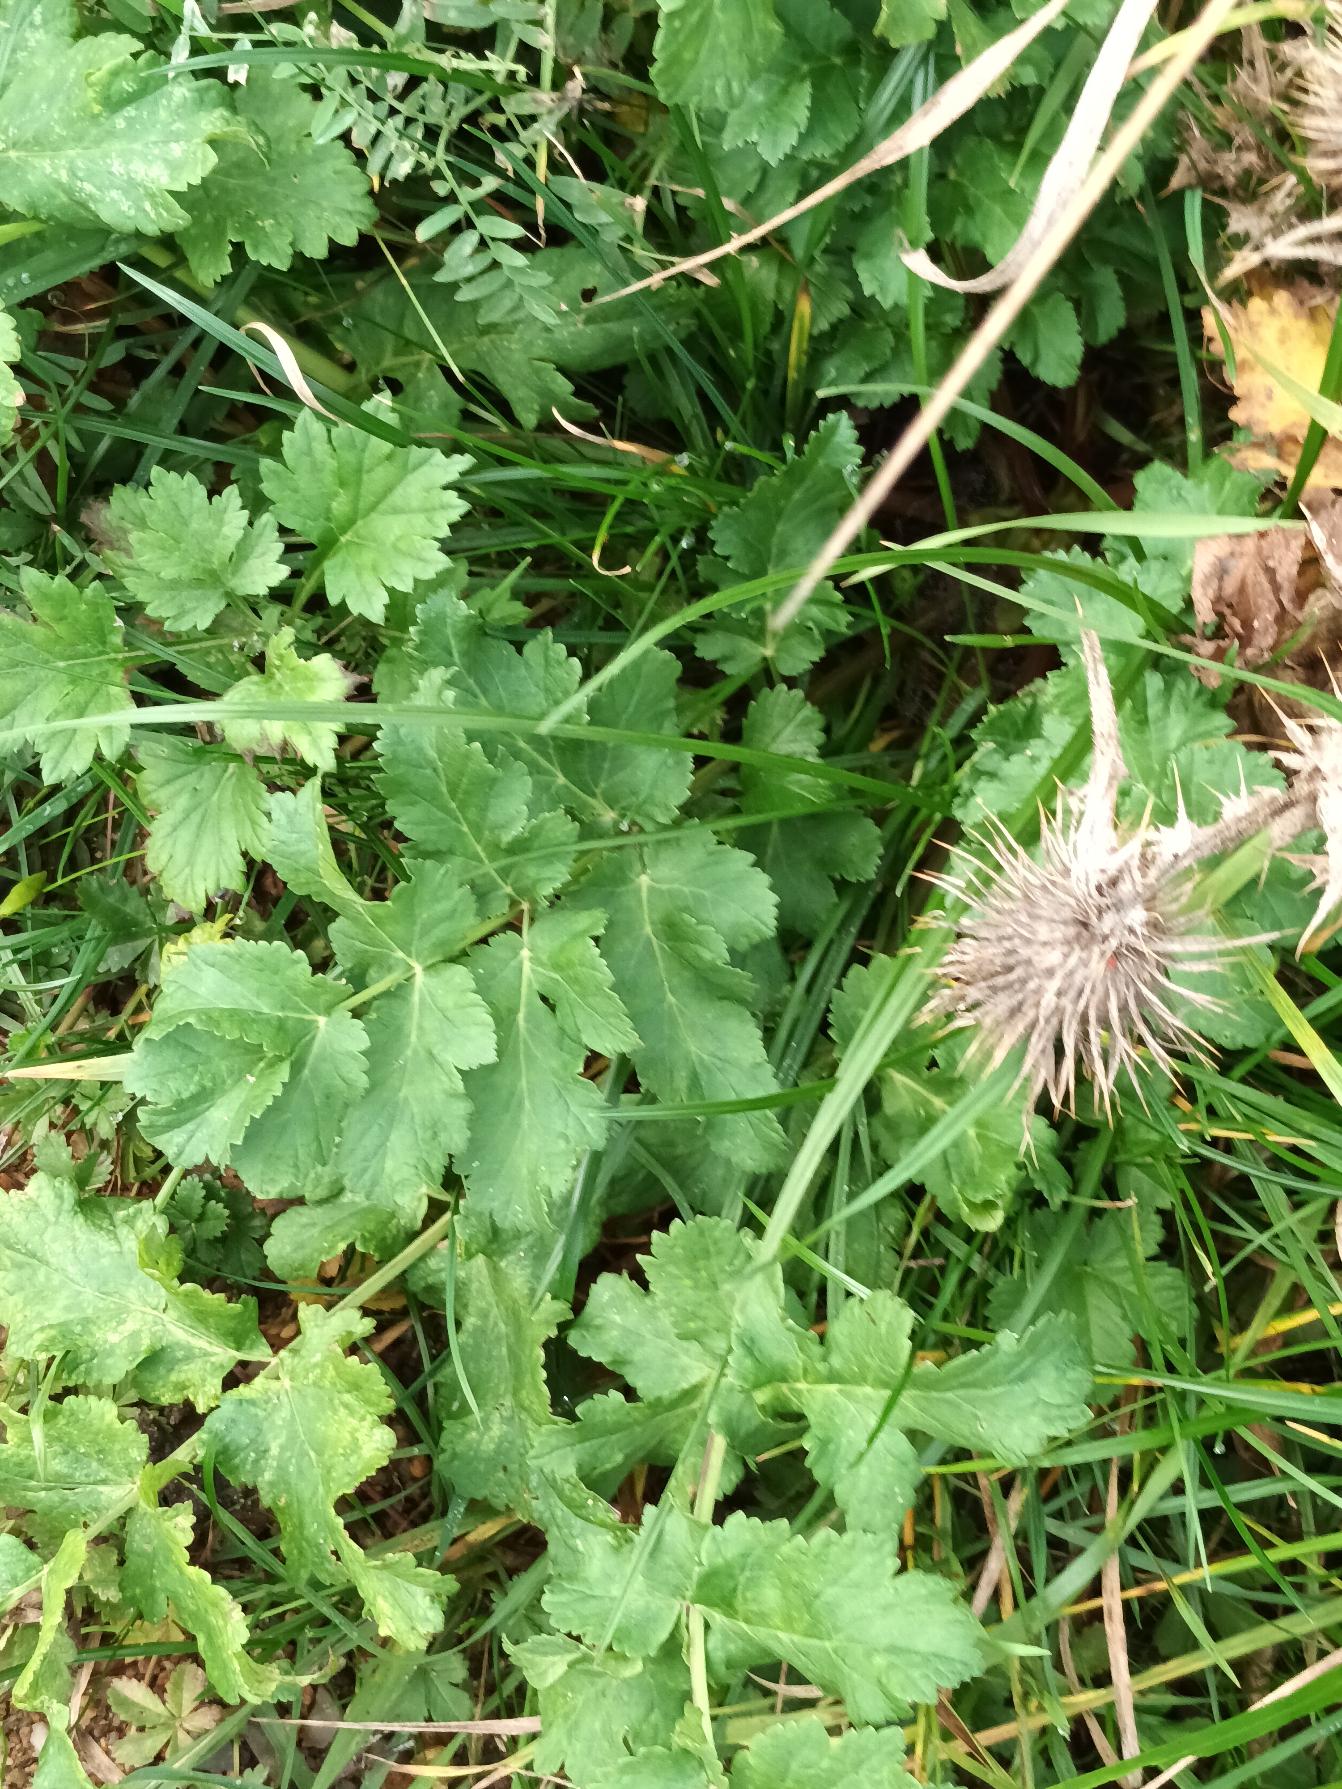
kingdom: Plantae
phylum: Tracheophyta
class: Magnoliopsida
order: Apiales
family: Apiaceae
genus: Pastinaca
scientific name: Pastinaca sativa
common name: Pastinak
